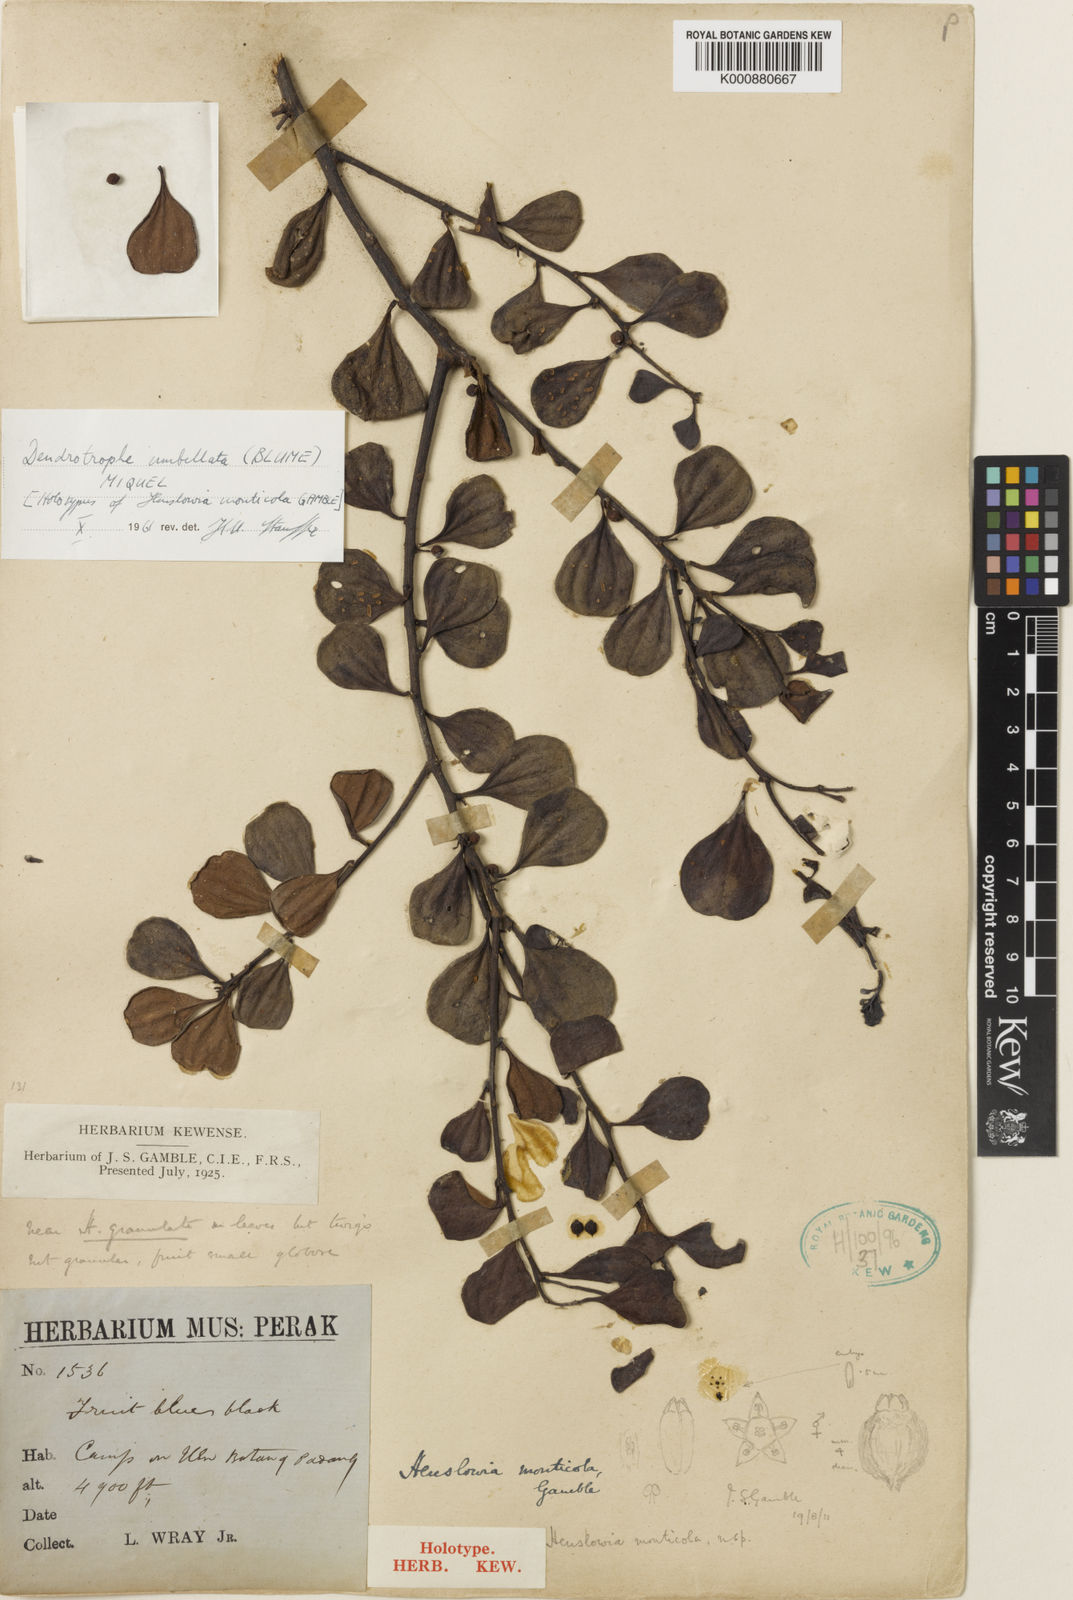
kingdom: Plantae
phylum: Tracheophyta
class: Magnoliopsida
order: Santalales
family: Amphorogynaceae
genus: Dendrotrophe
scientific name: Dendrotrophe umbellata
